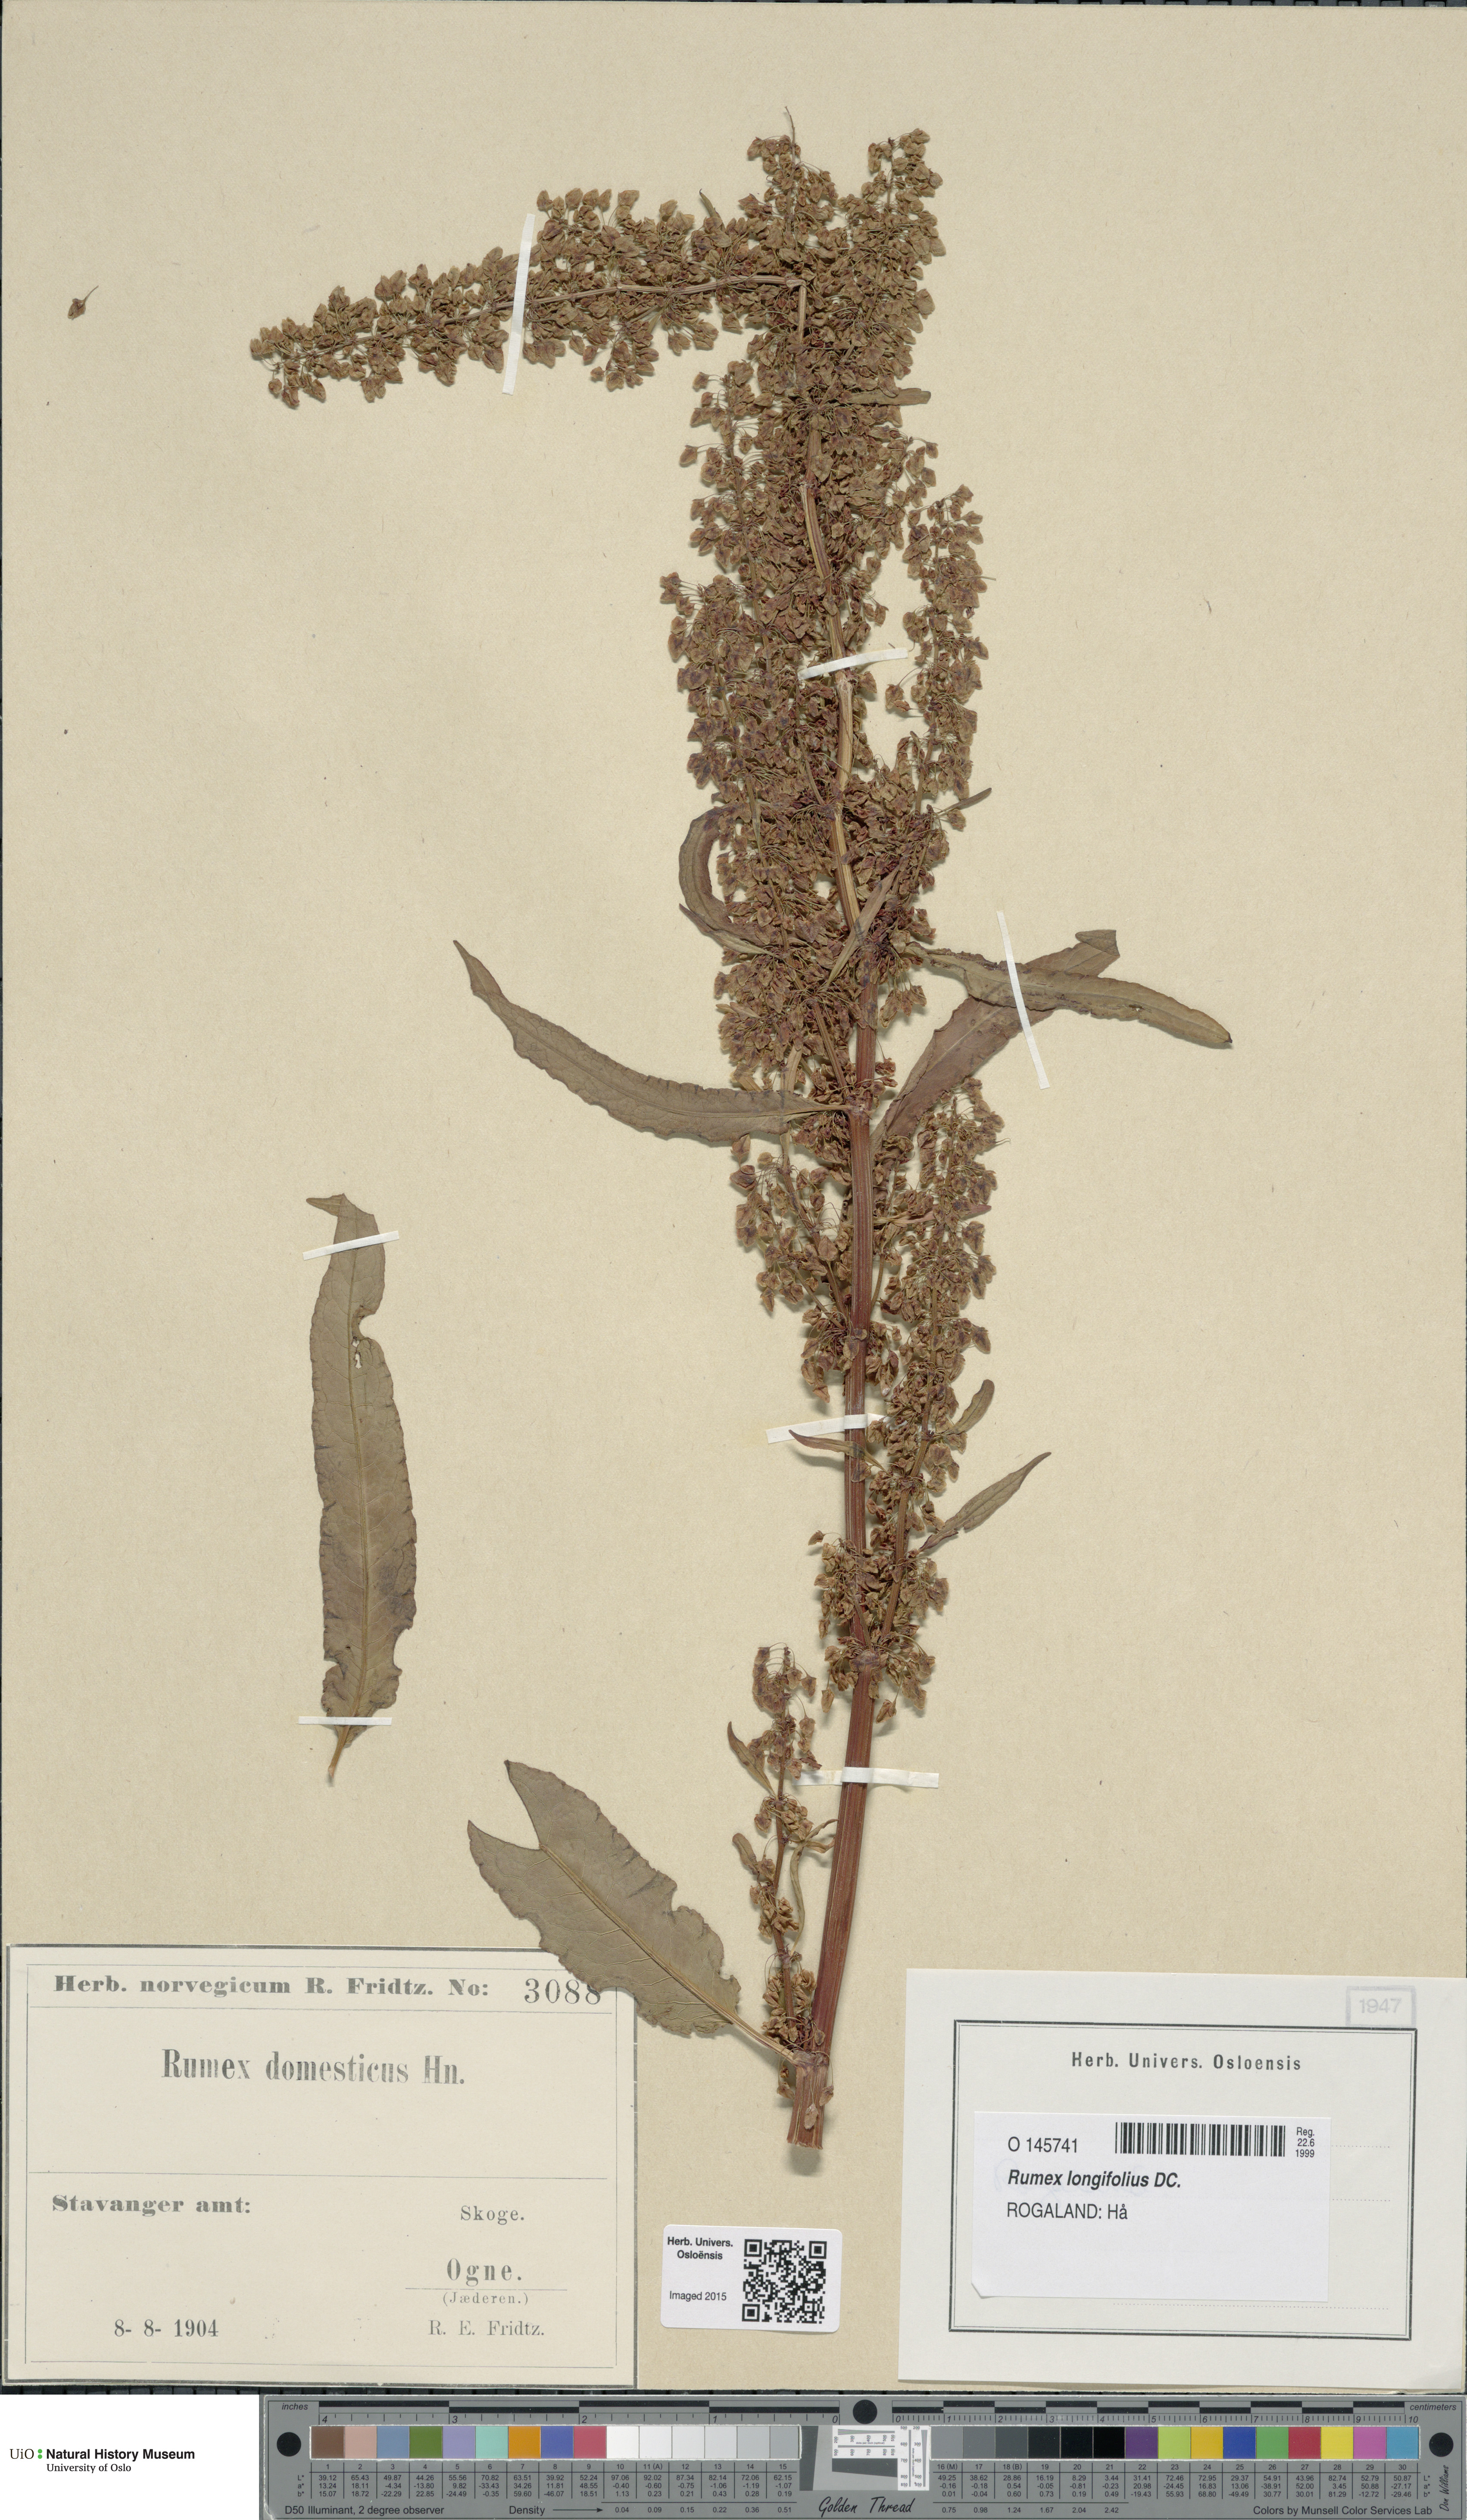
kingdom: Plantae
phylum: Tracheophyta
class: Magnoliopsida
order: Caryophyllales
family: Polygonaceae
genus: Rumex
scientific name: Rumex longifolius
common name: Dooryard dock
